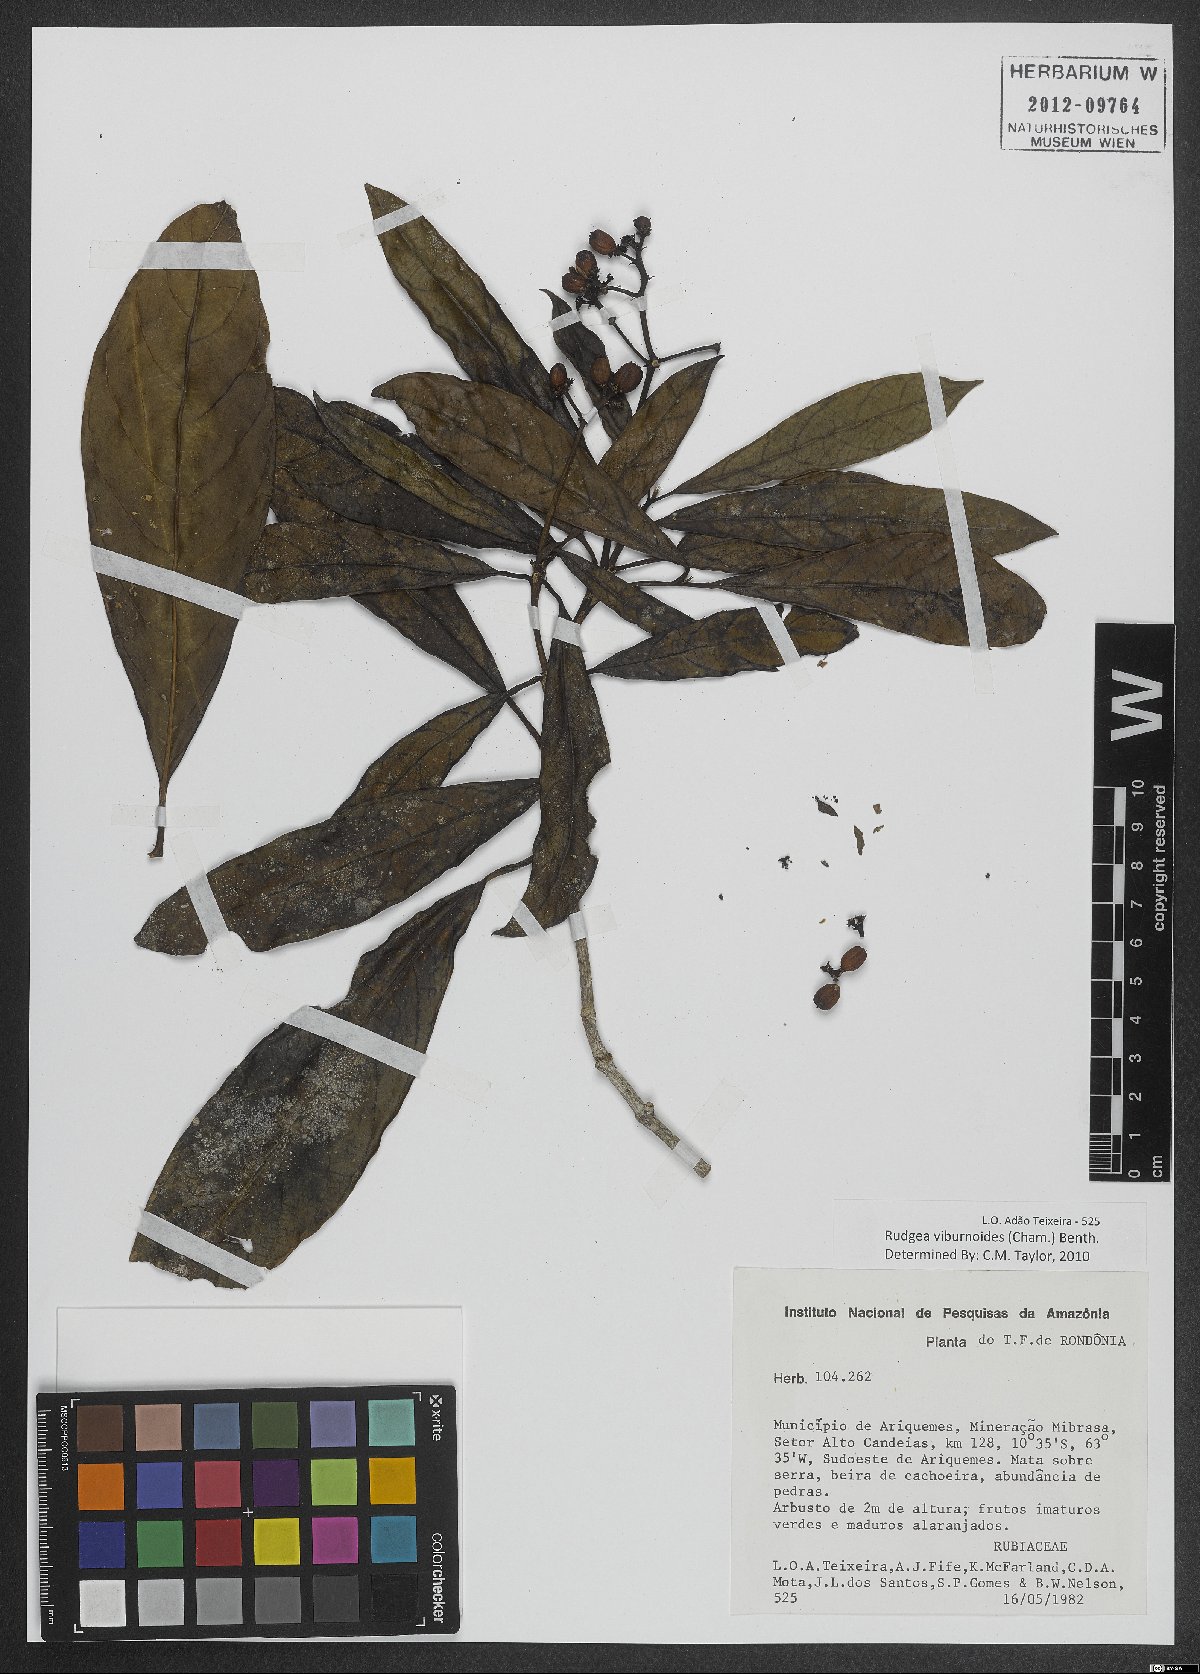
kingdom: Plantae
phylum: Tracheophyta
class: Magnoliopsida
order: Gentianales
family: Rubiaceae
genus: Rudgea
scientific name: Rudgea viburnoides
